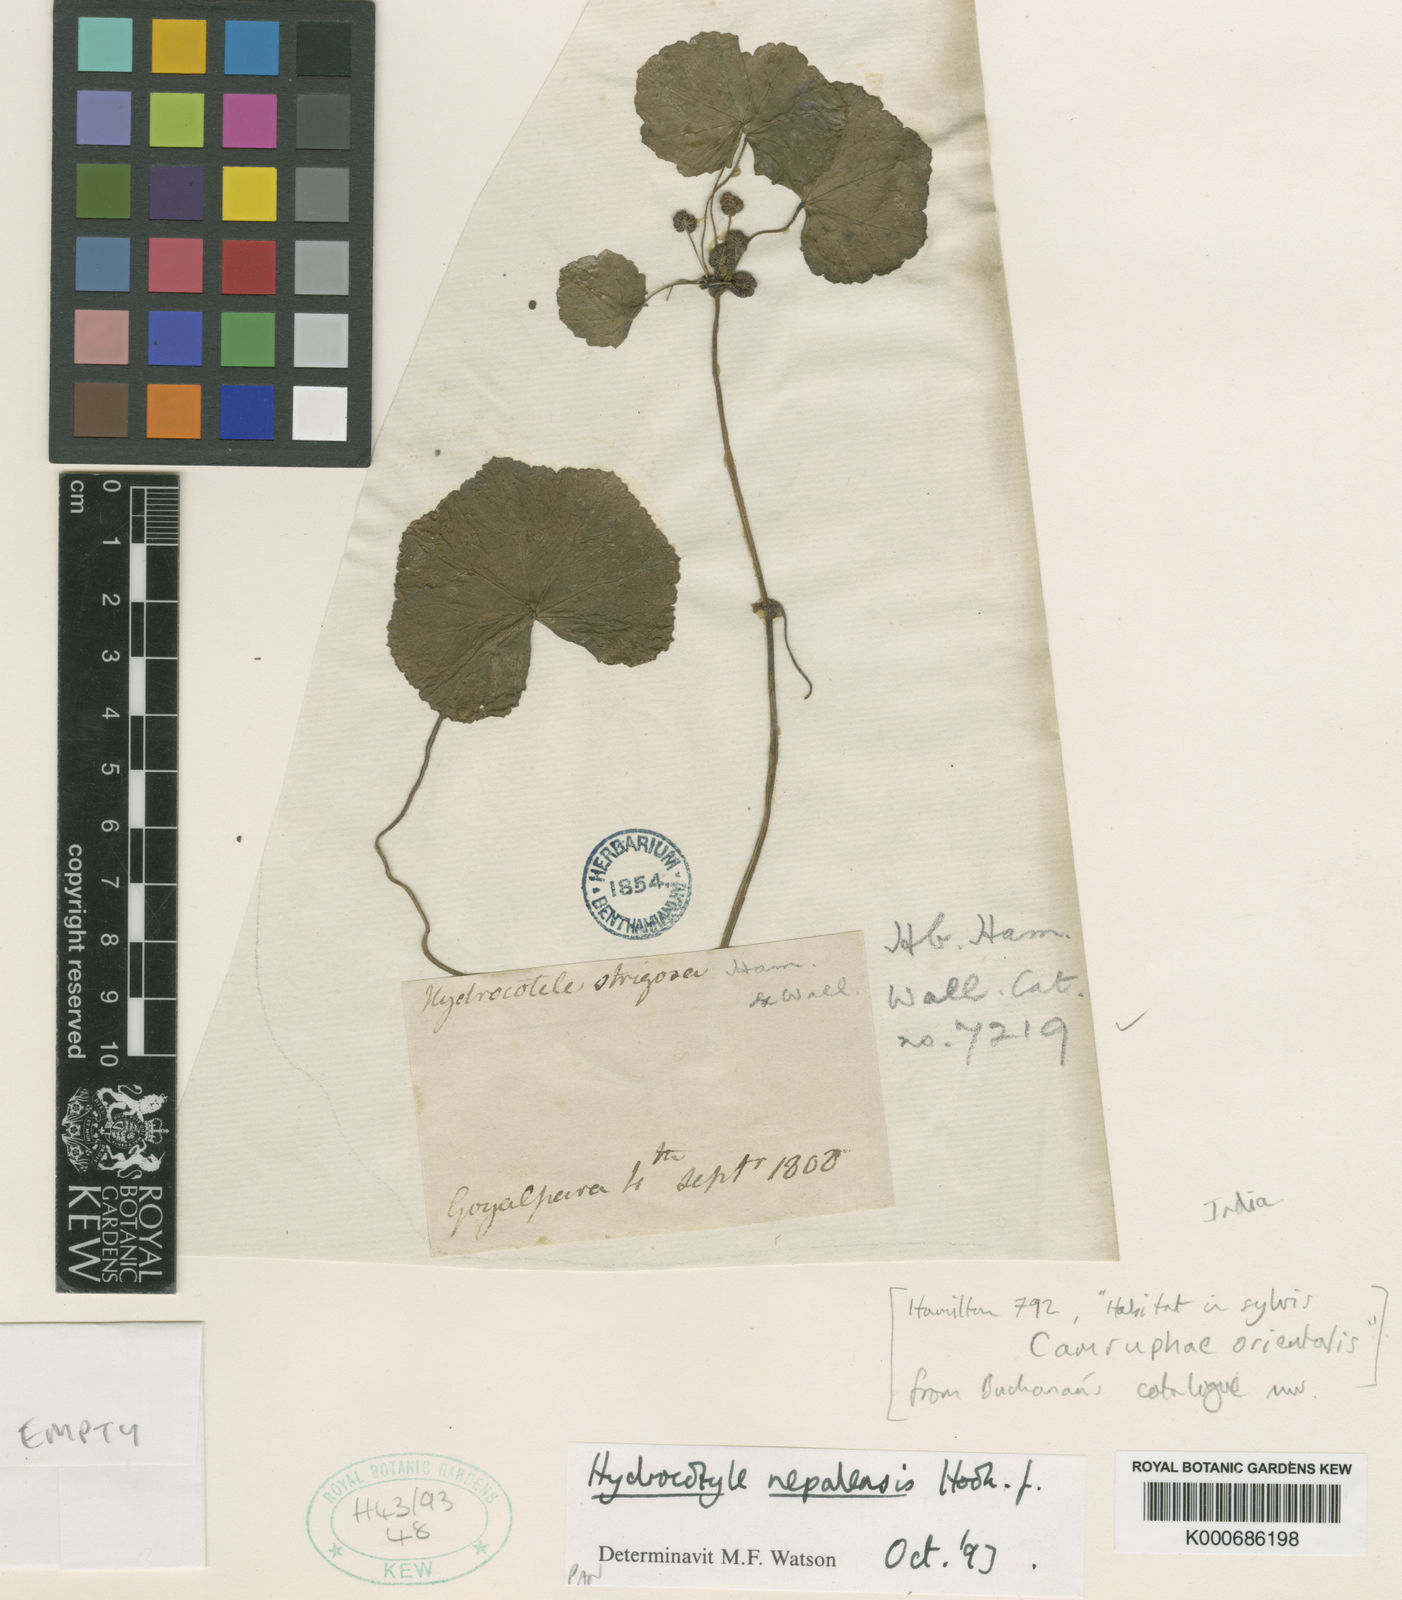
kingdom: Plantae
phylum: Tracheophyta
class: Magnoliopsida
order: Apiales
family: Araliaceae
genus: Hydrocotyle
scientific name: Hydrocotyle nepalensis
